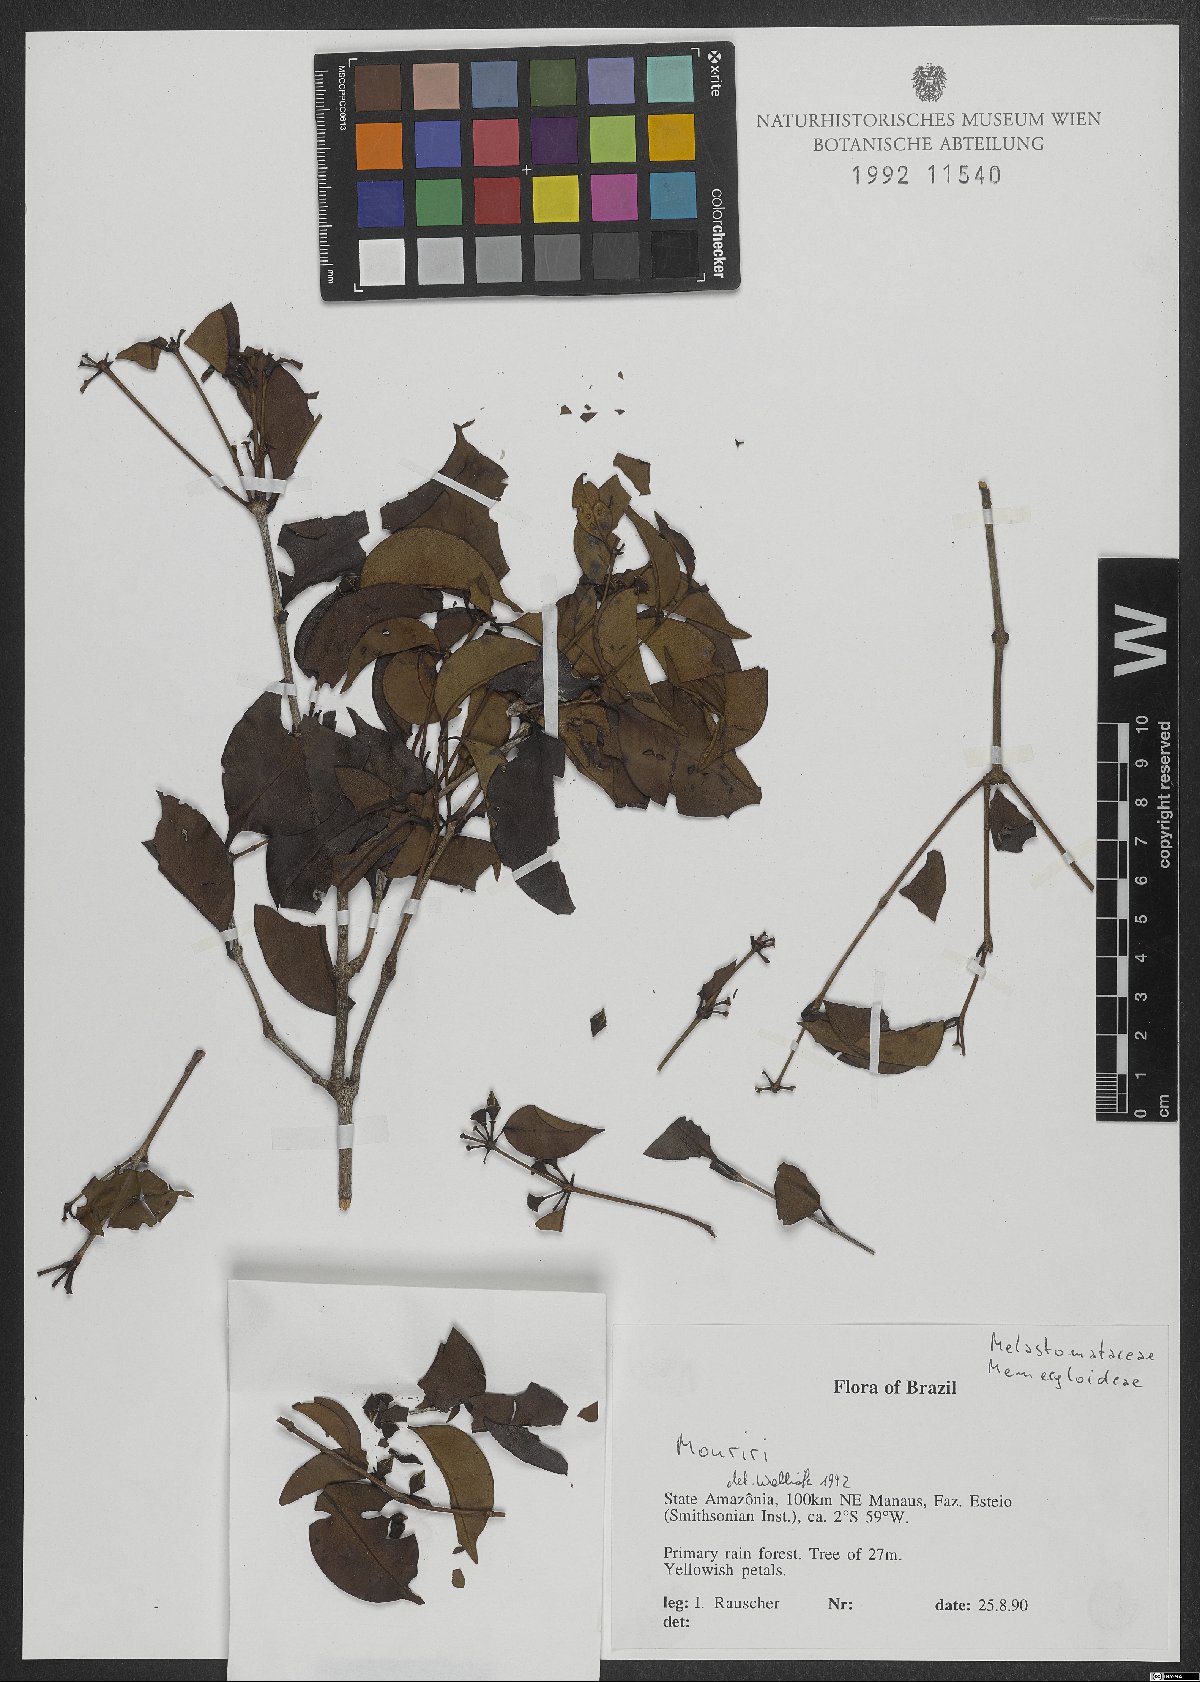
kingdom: Plantae
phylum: Tracheophyta
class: Magnoliopsida
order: Myrtales
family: Melastomataceae
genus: Mouriri
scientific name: Mouriri
